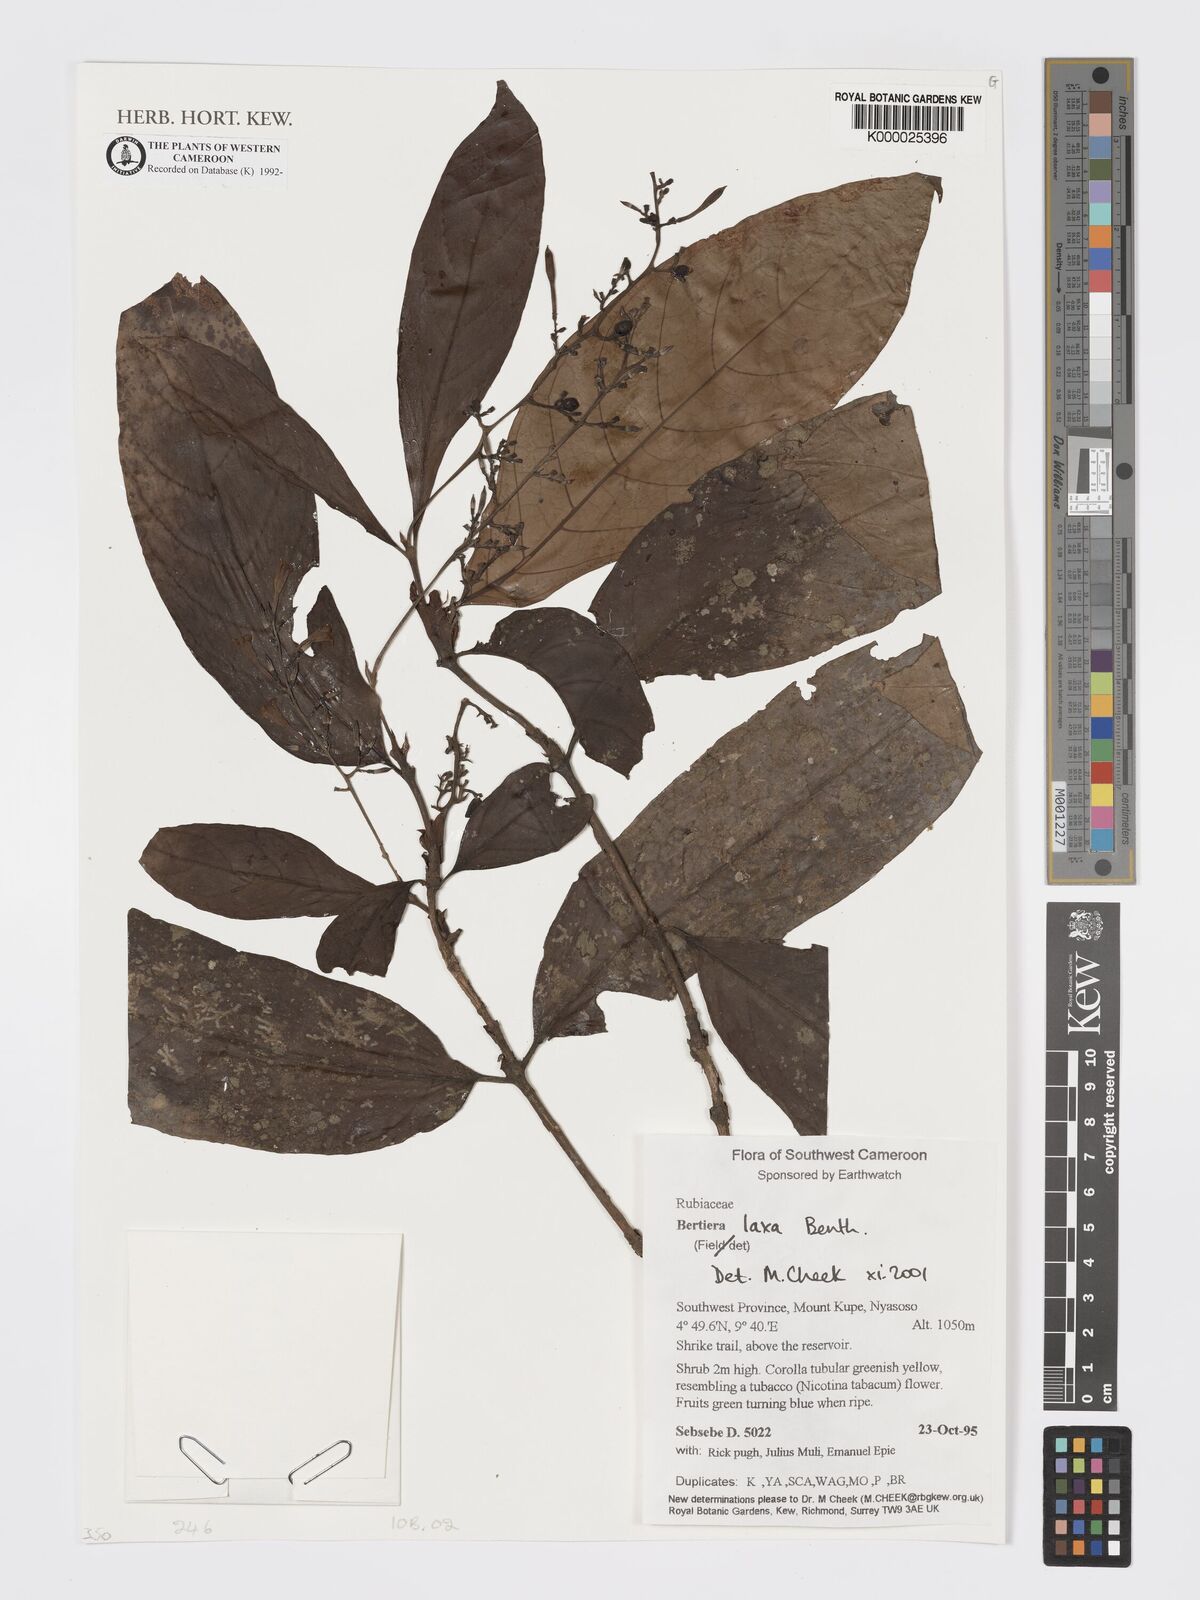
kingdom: Plantae
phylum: Tracheophyta
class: Magnoliopsida
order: Gentianales
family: Rubiaceae
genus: Bertiera
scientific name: Bertiera laxa
